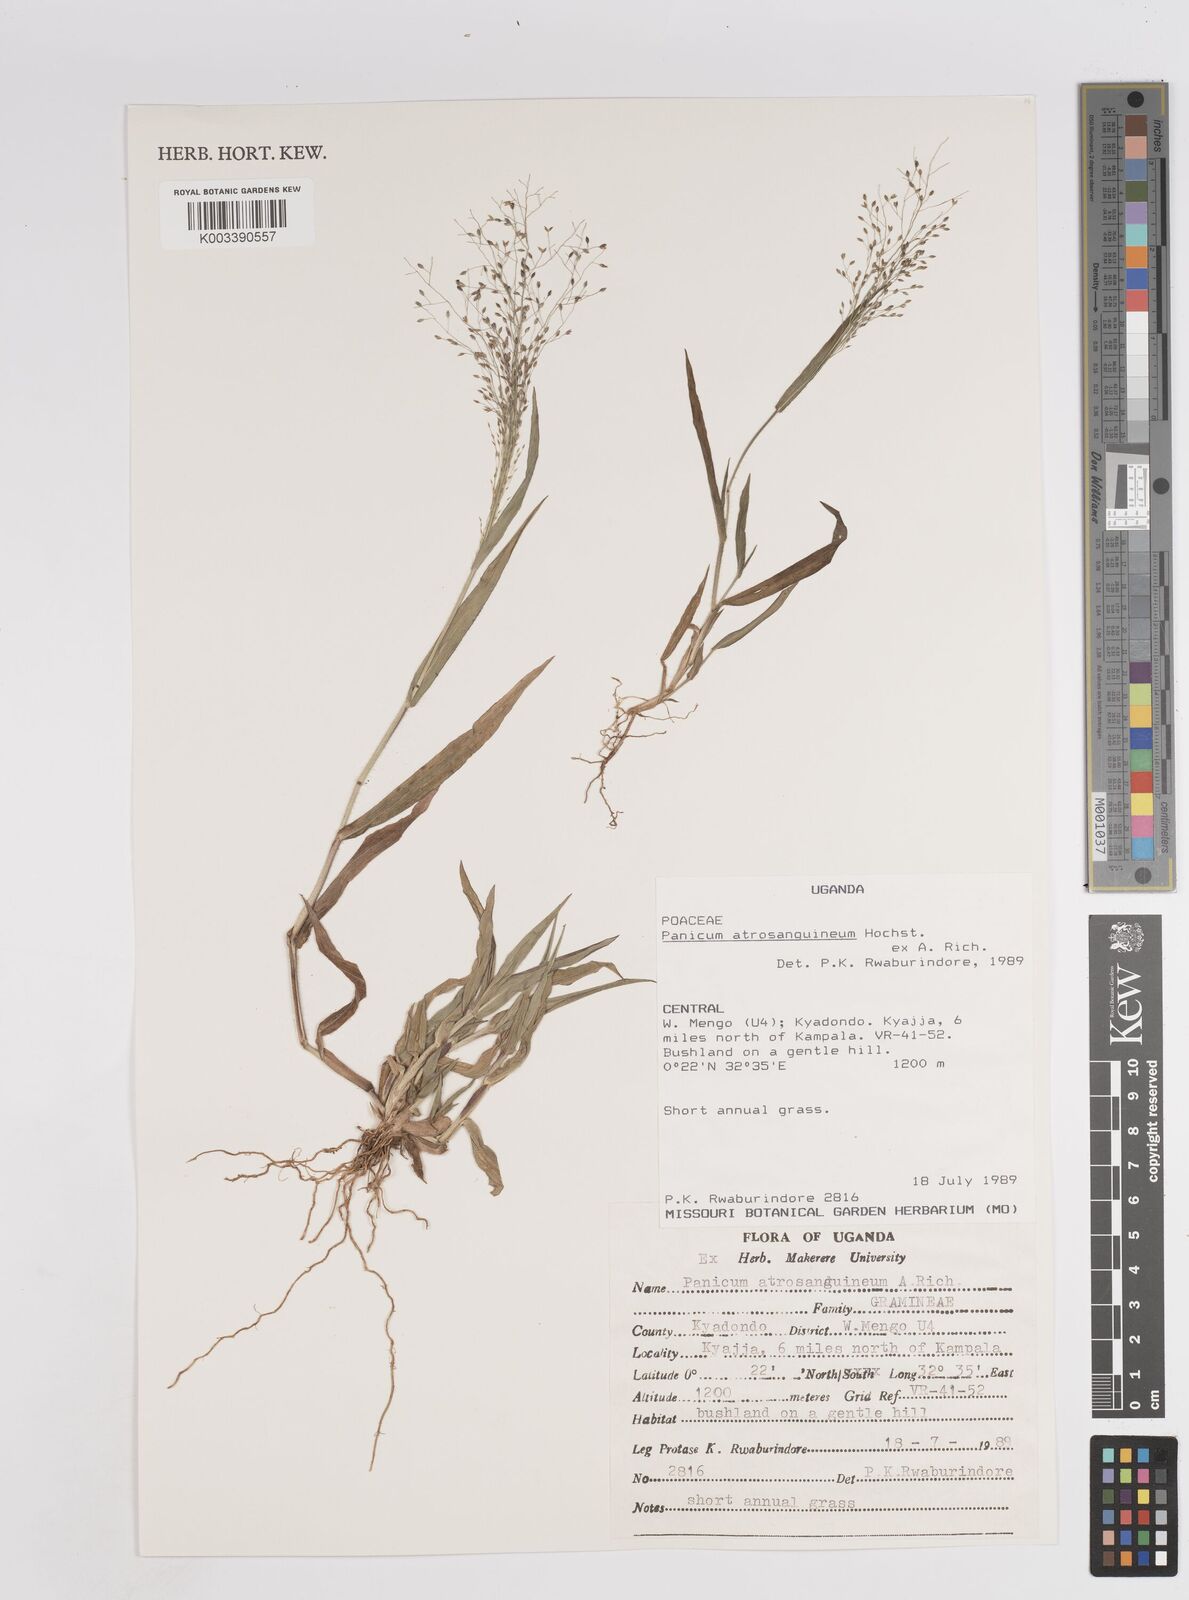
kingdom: Plantae
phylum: Tracheophyta
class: Liliopsida
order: Poales
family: Poaceae
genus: Panicum
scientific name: Panicum atrosanguineum
